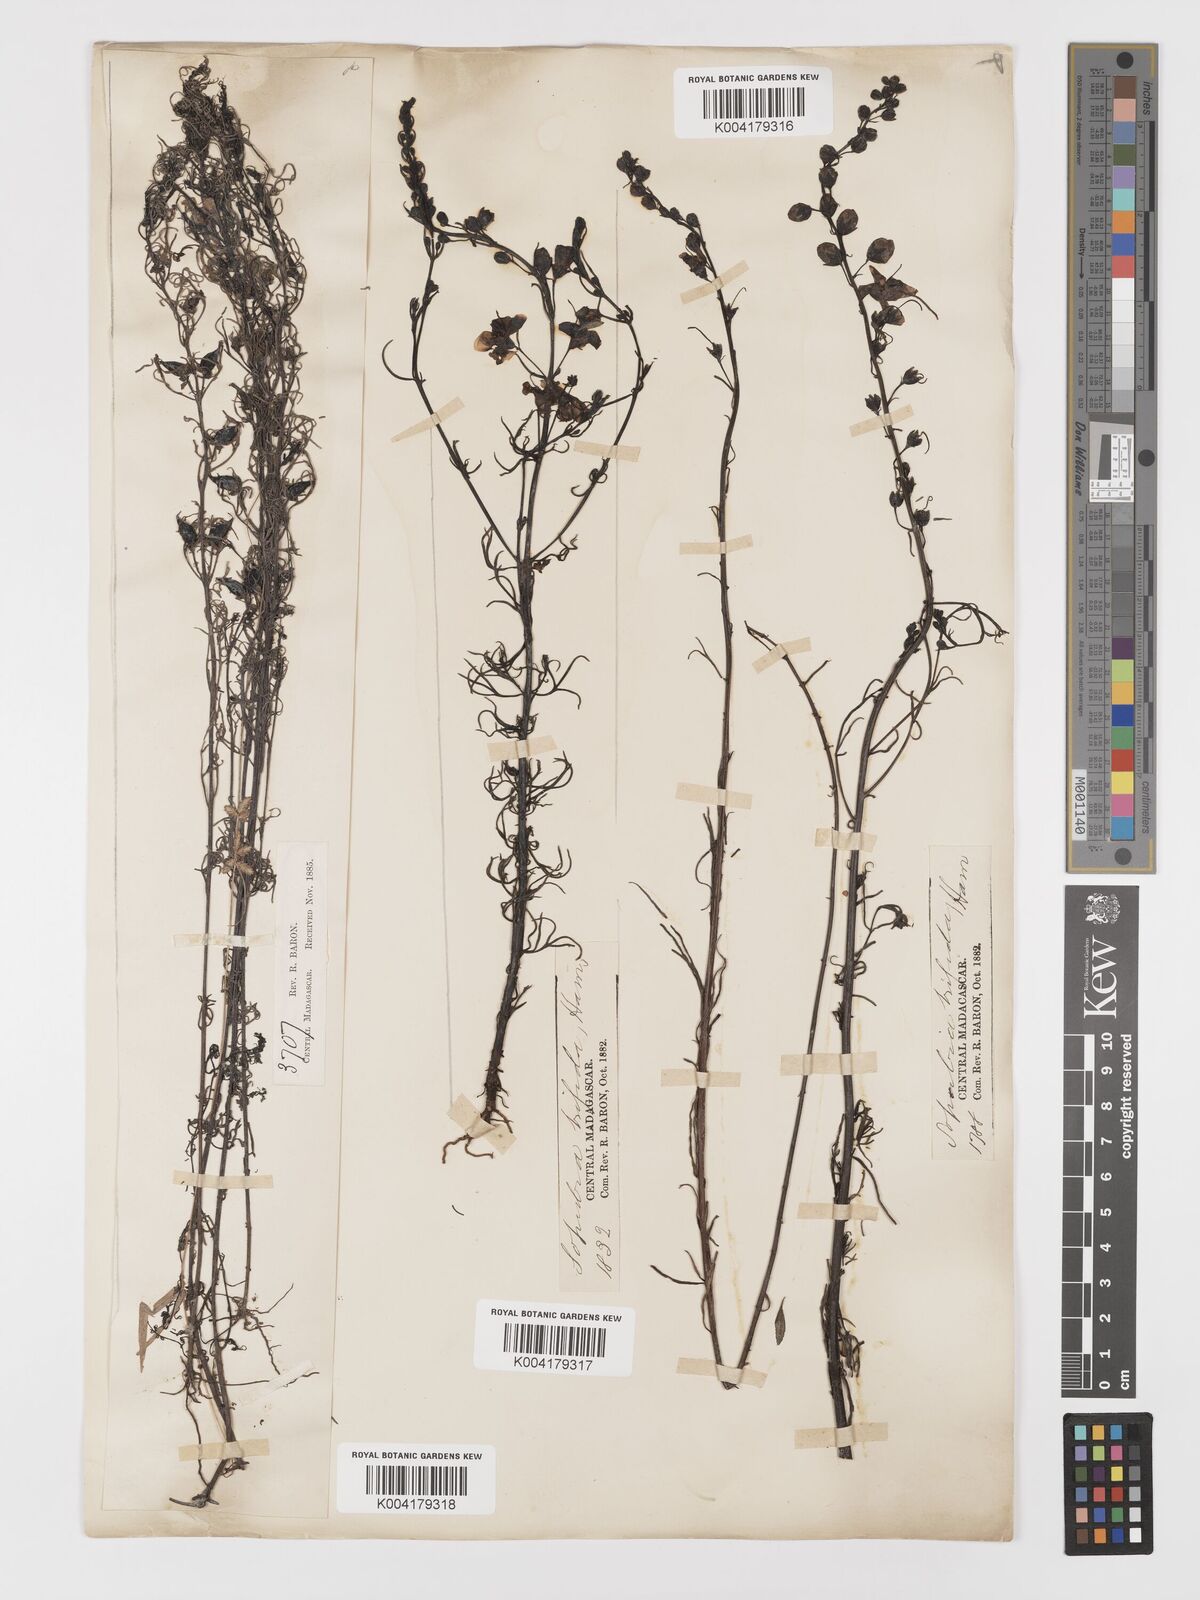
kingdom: Plantae
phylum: Tracheophyta
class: Magnoliopsida
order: Lamiales
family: Orobanchaceae
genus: Sopubia
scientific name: Sopubia trifida
